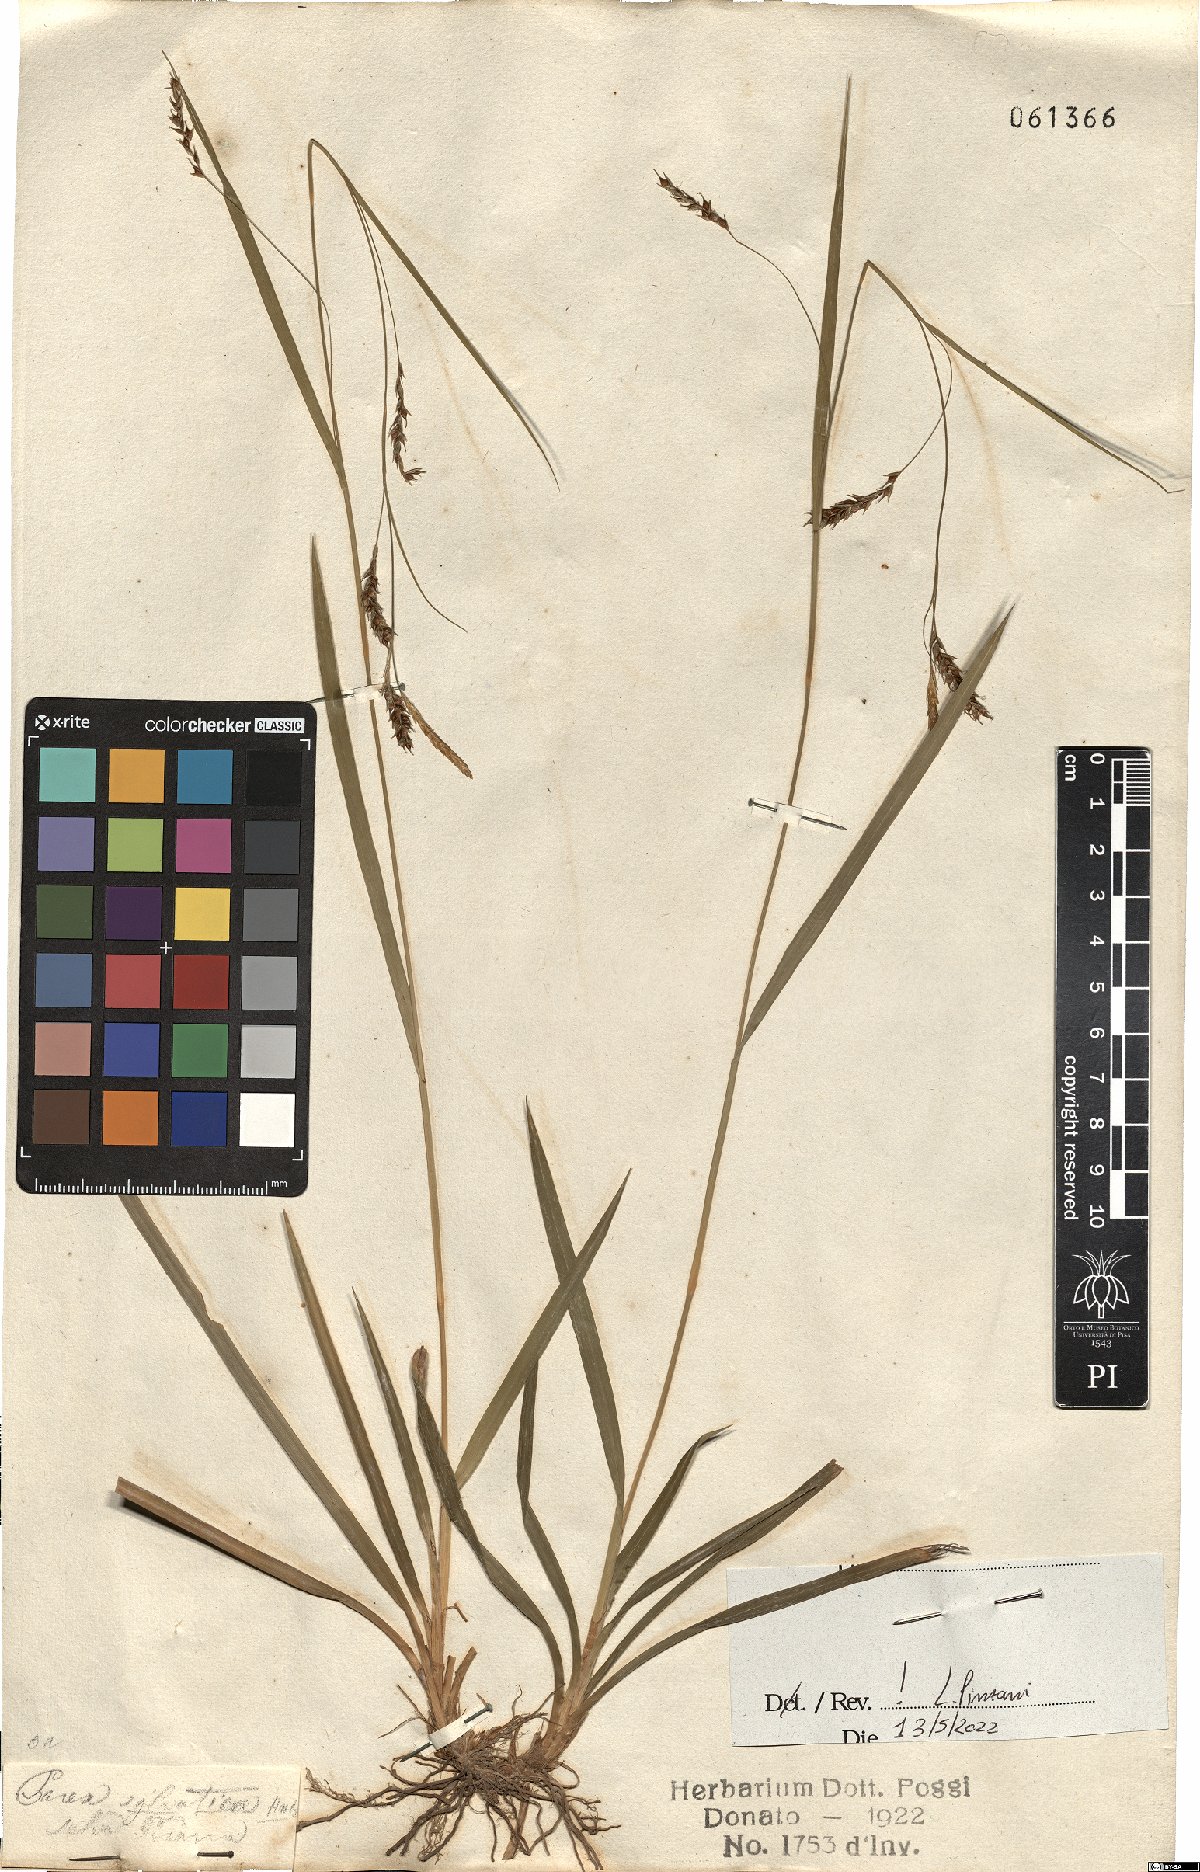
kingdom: Plantae
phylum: Tracheophyta
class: Liliopsida
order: Poales
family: Cyperaceae
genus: Carex
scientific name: Carex sylvatica
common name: Wood-sedge
